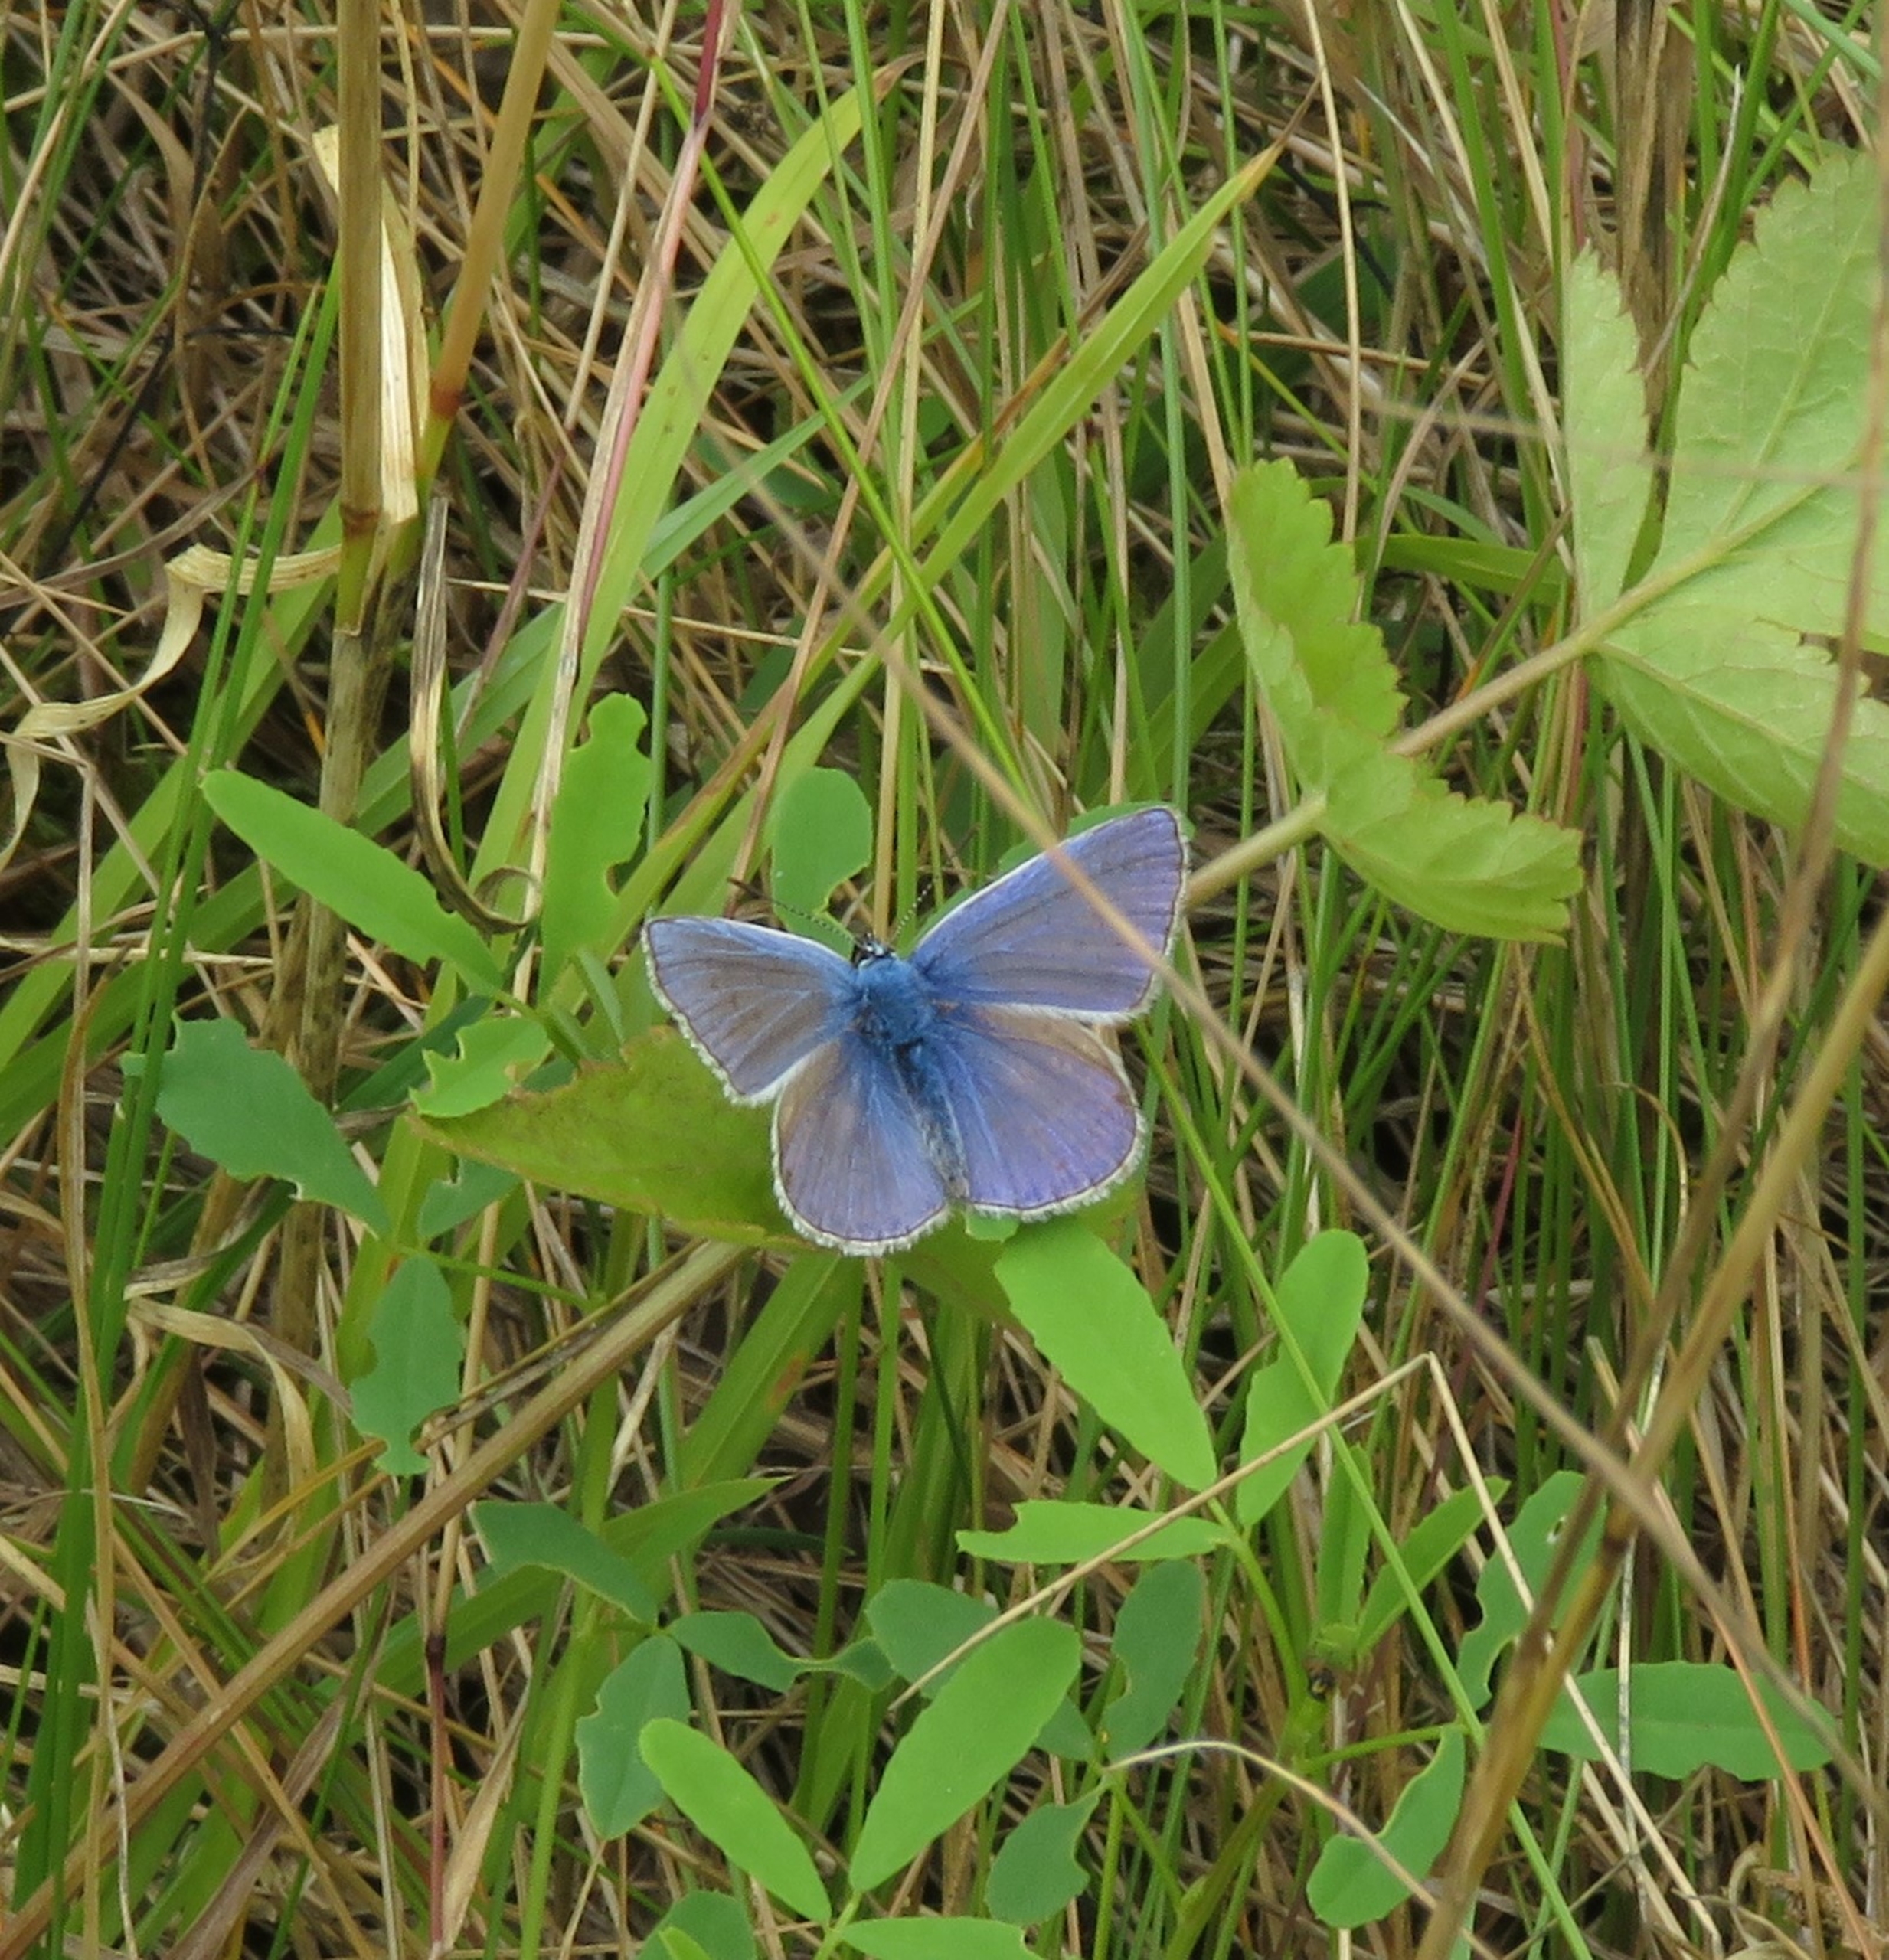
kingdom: Animalia
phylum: Arthropoda
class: Insecta
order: Lepidoptera
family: Lycaenidae
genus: Polyommatus
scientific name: Polyommatus icarus
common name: Almindelig blåfugl
